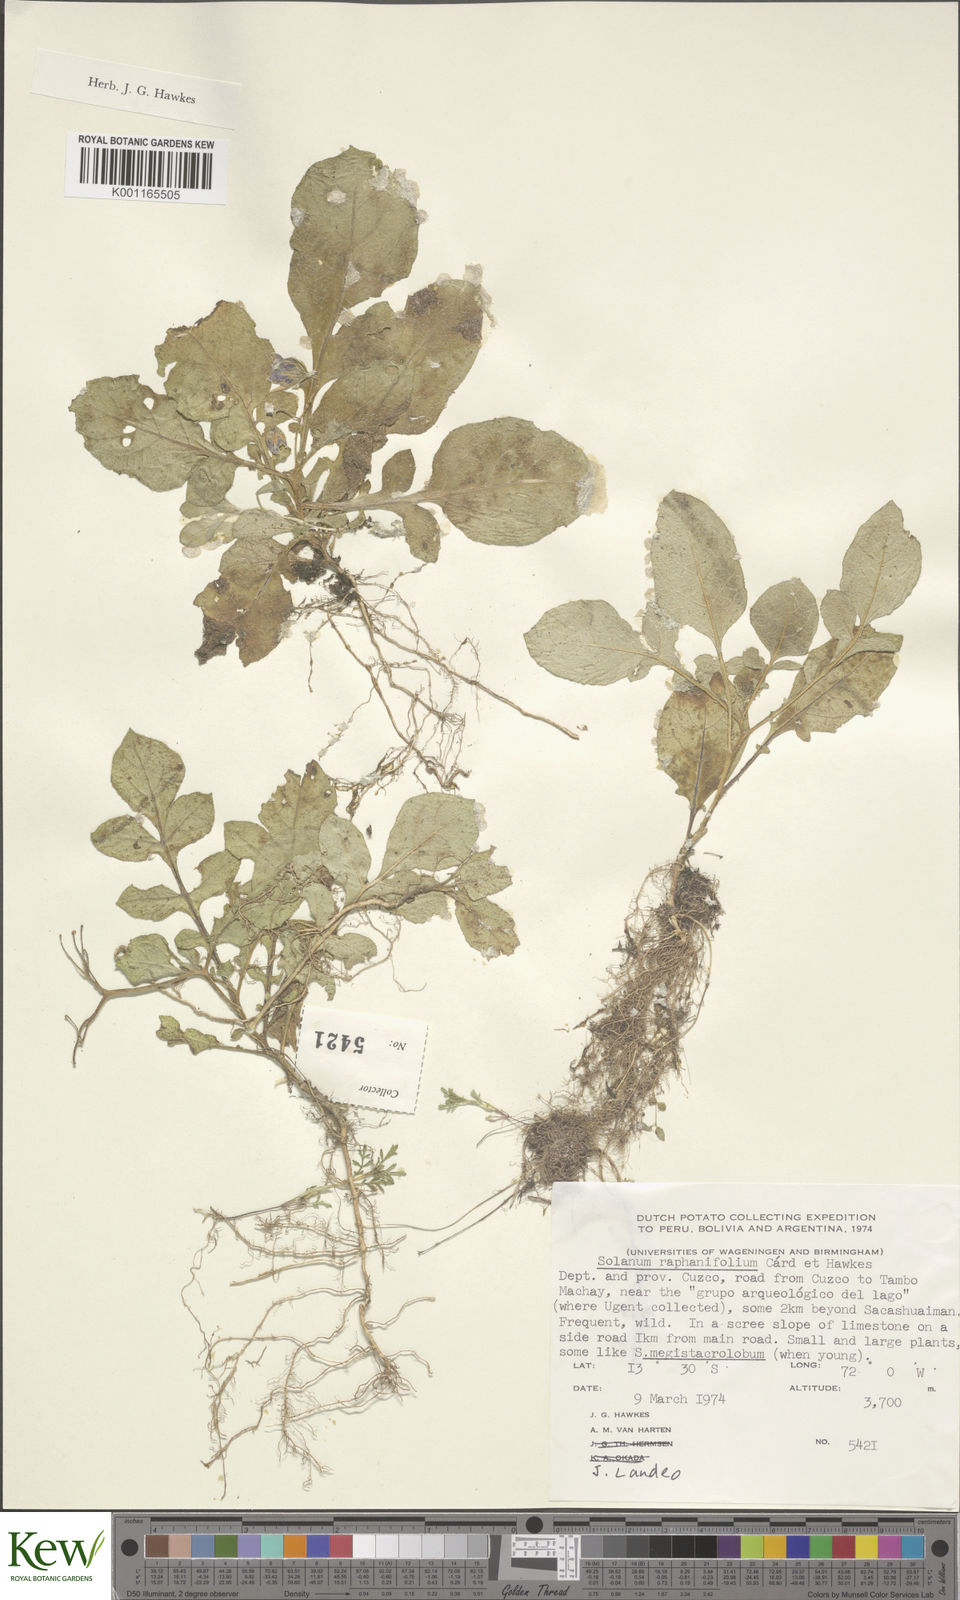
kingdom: Plantae
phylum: Tracheophyta
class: Magnoliopsida
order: Solanales
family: Solanaceae
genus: Solanum
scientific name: Solanum raphanifolium
